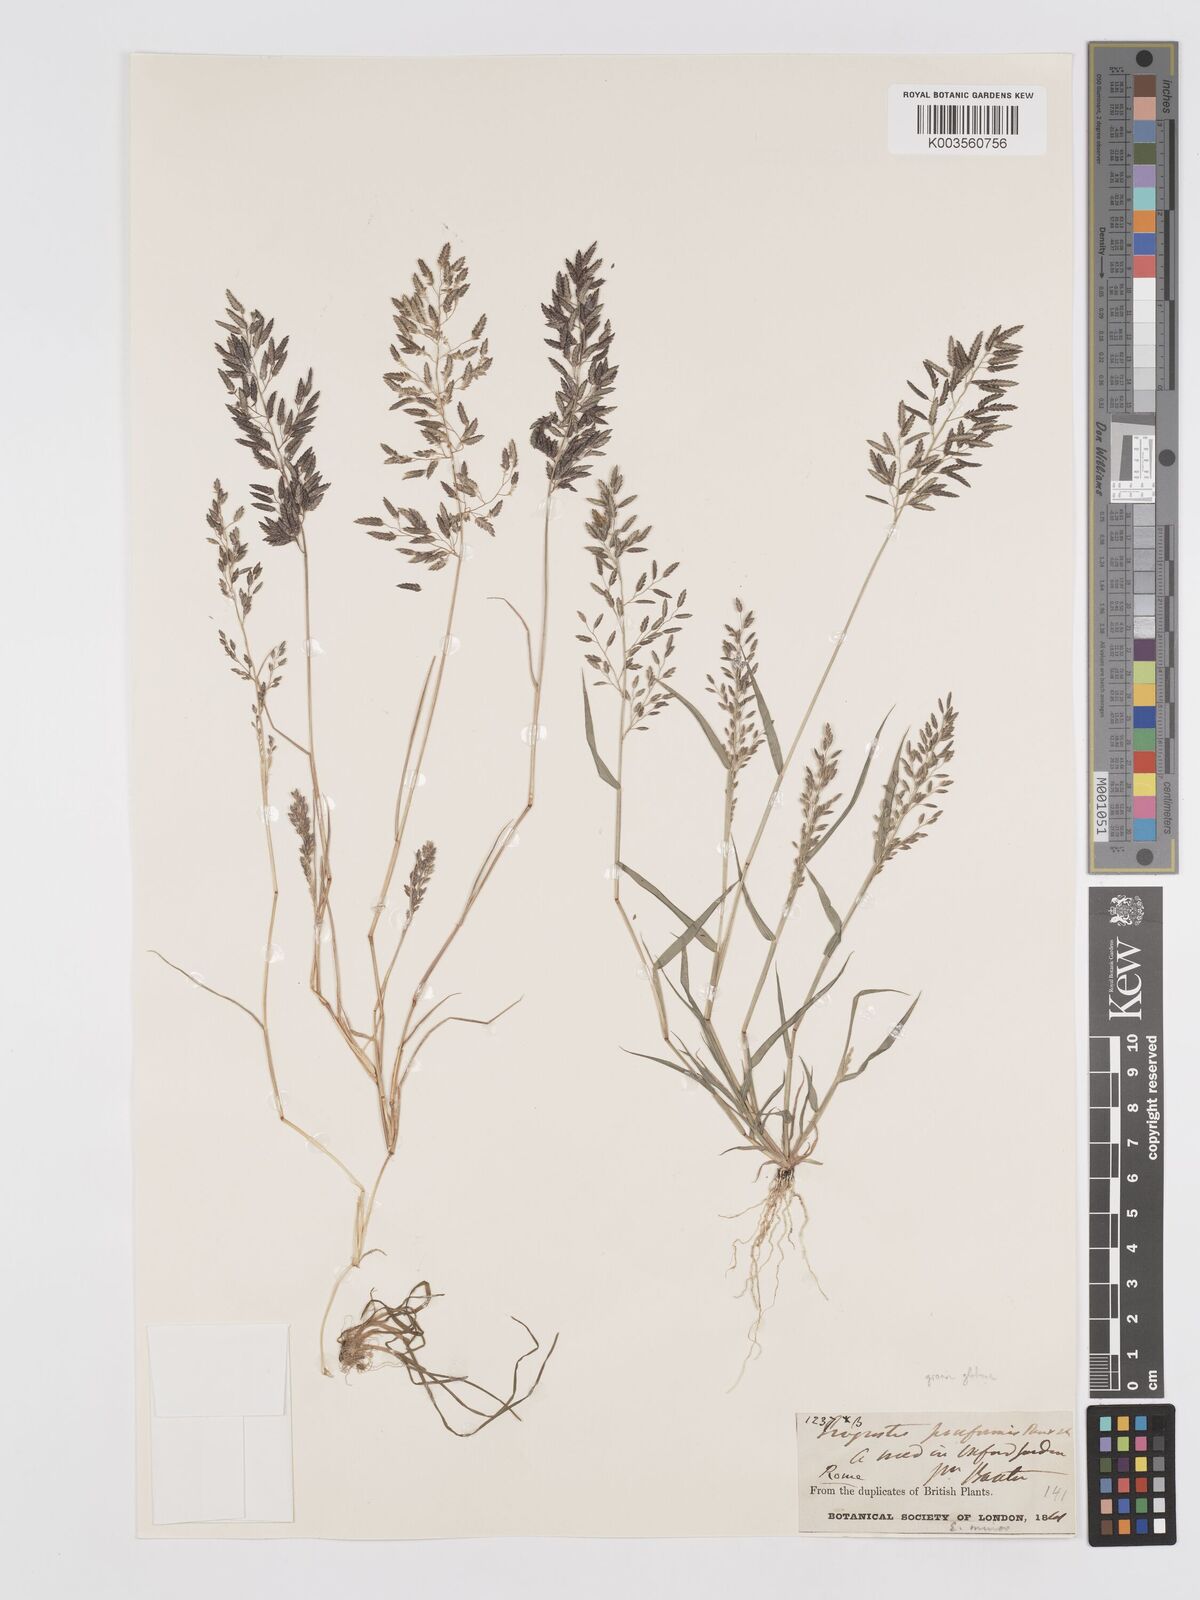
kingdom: Plantae
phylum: Tracheophyta
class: Liliopsida
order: Poales
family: Poaceae
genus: Eragrostis
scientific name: Eragrostis minor
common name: Small love-grass
